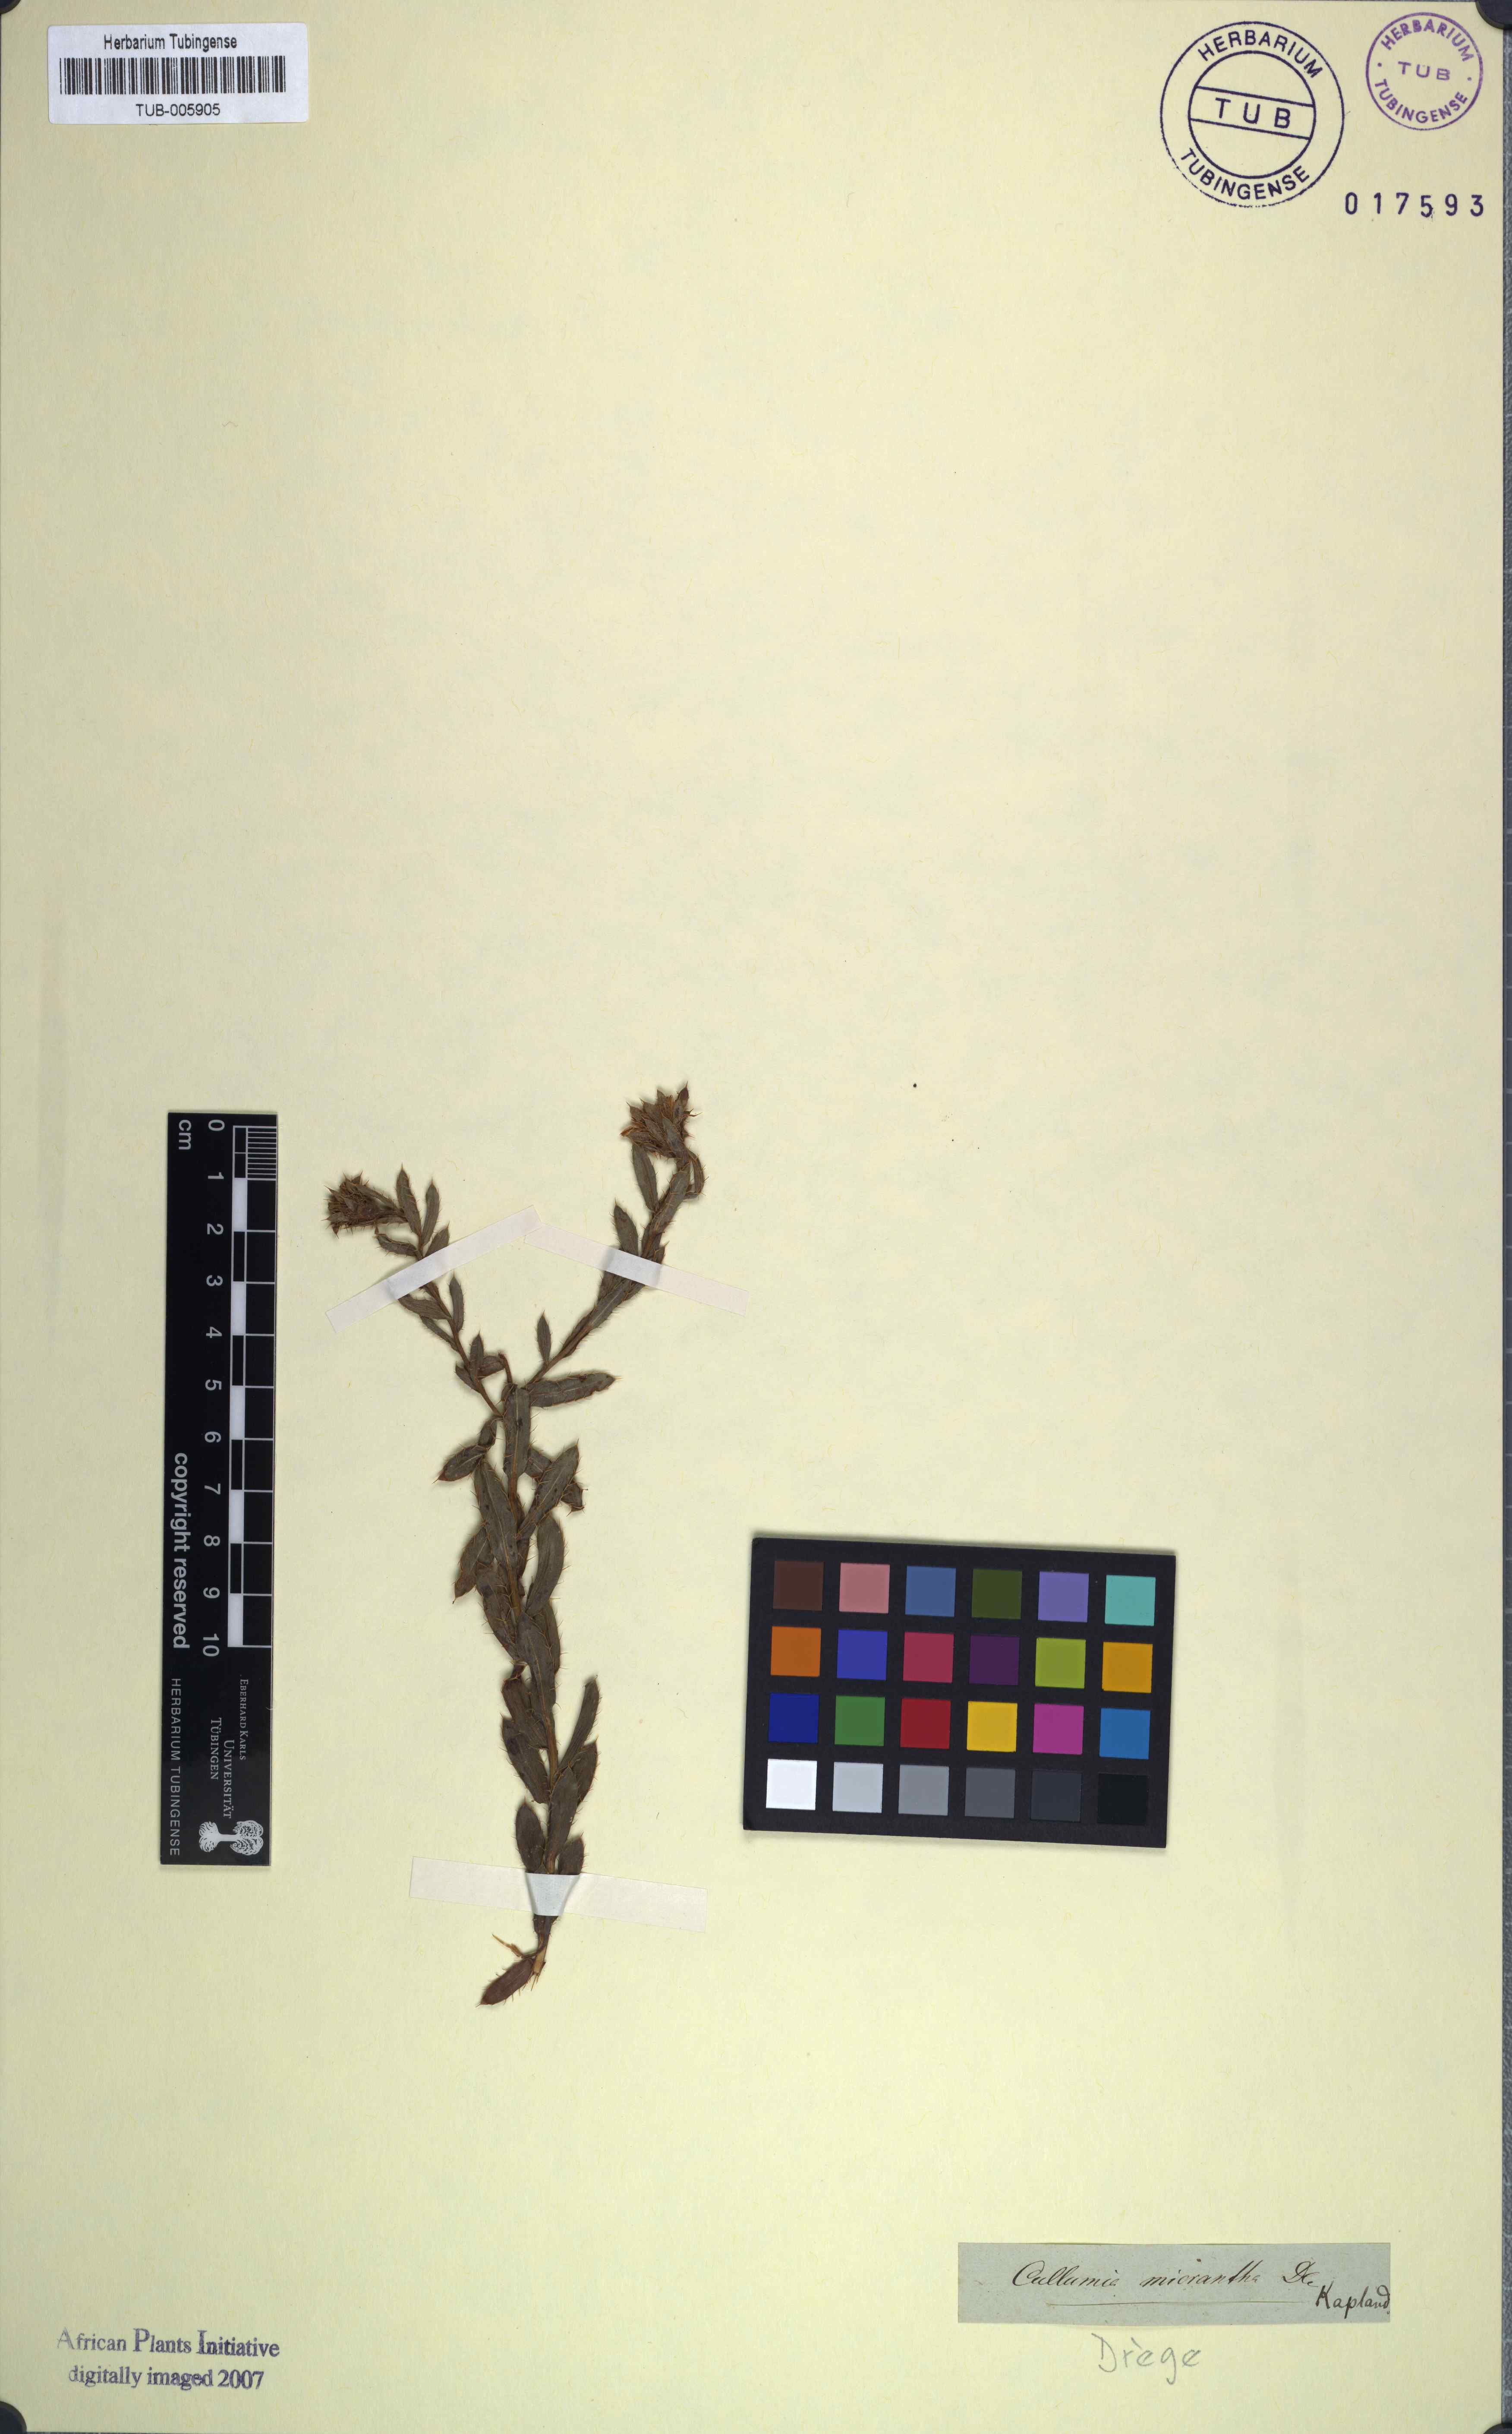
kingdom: Plantae
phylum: Tracheophyta
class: Magnoliopsida
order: Asterales
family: Asteraceae
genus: Cullumia
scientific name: Cullumia micracantha
